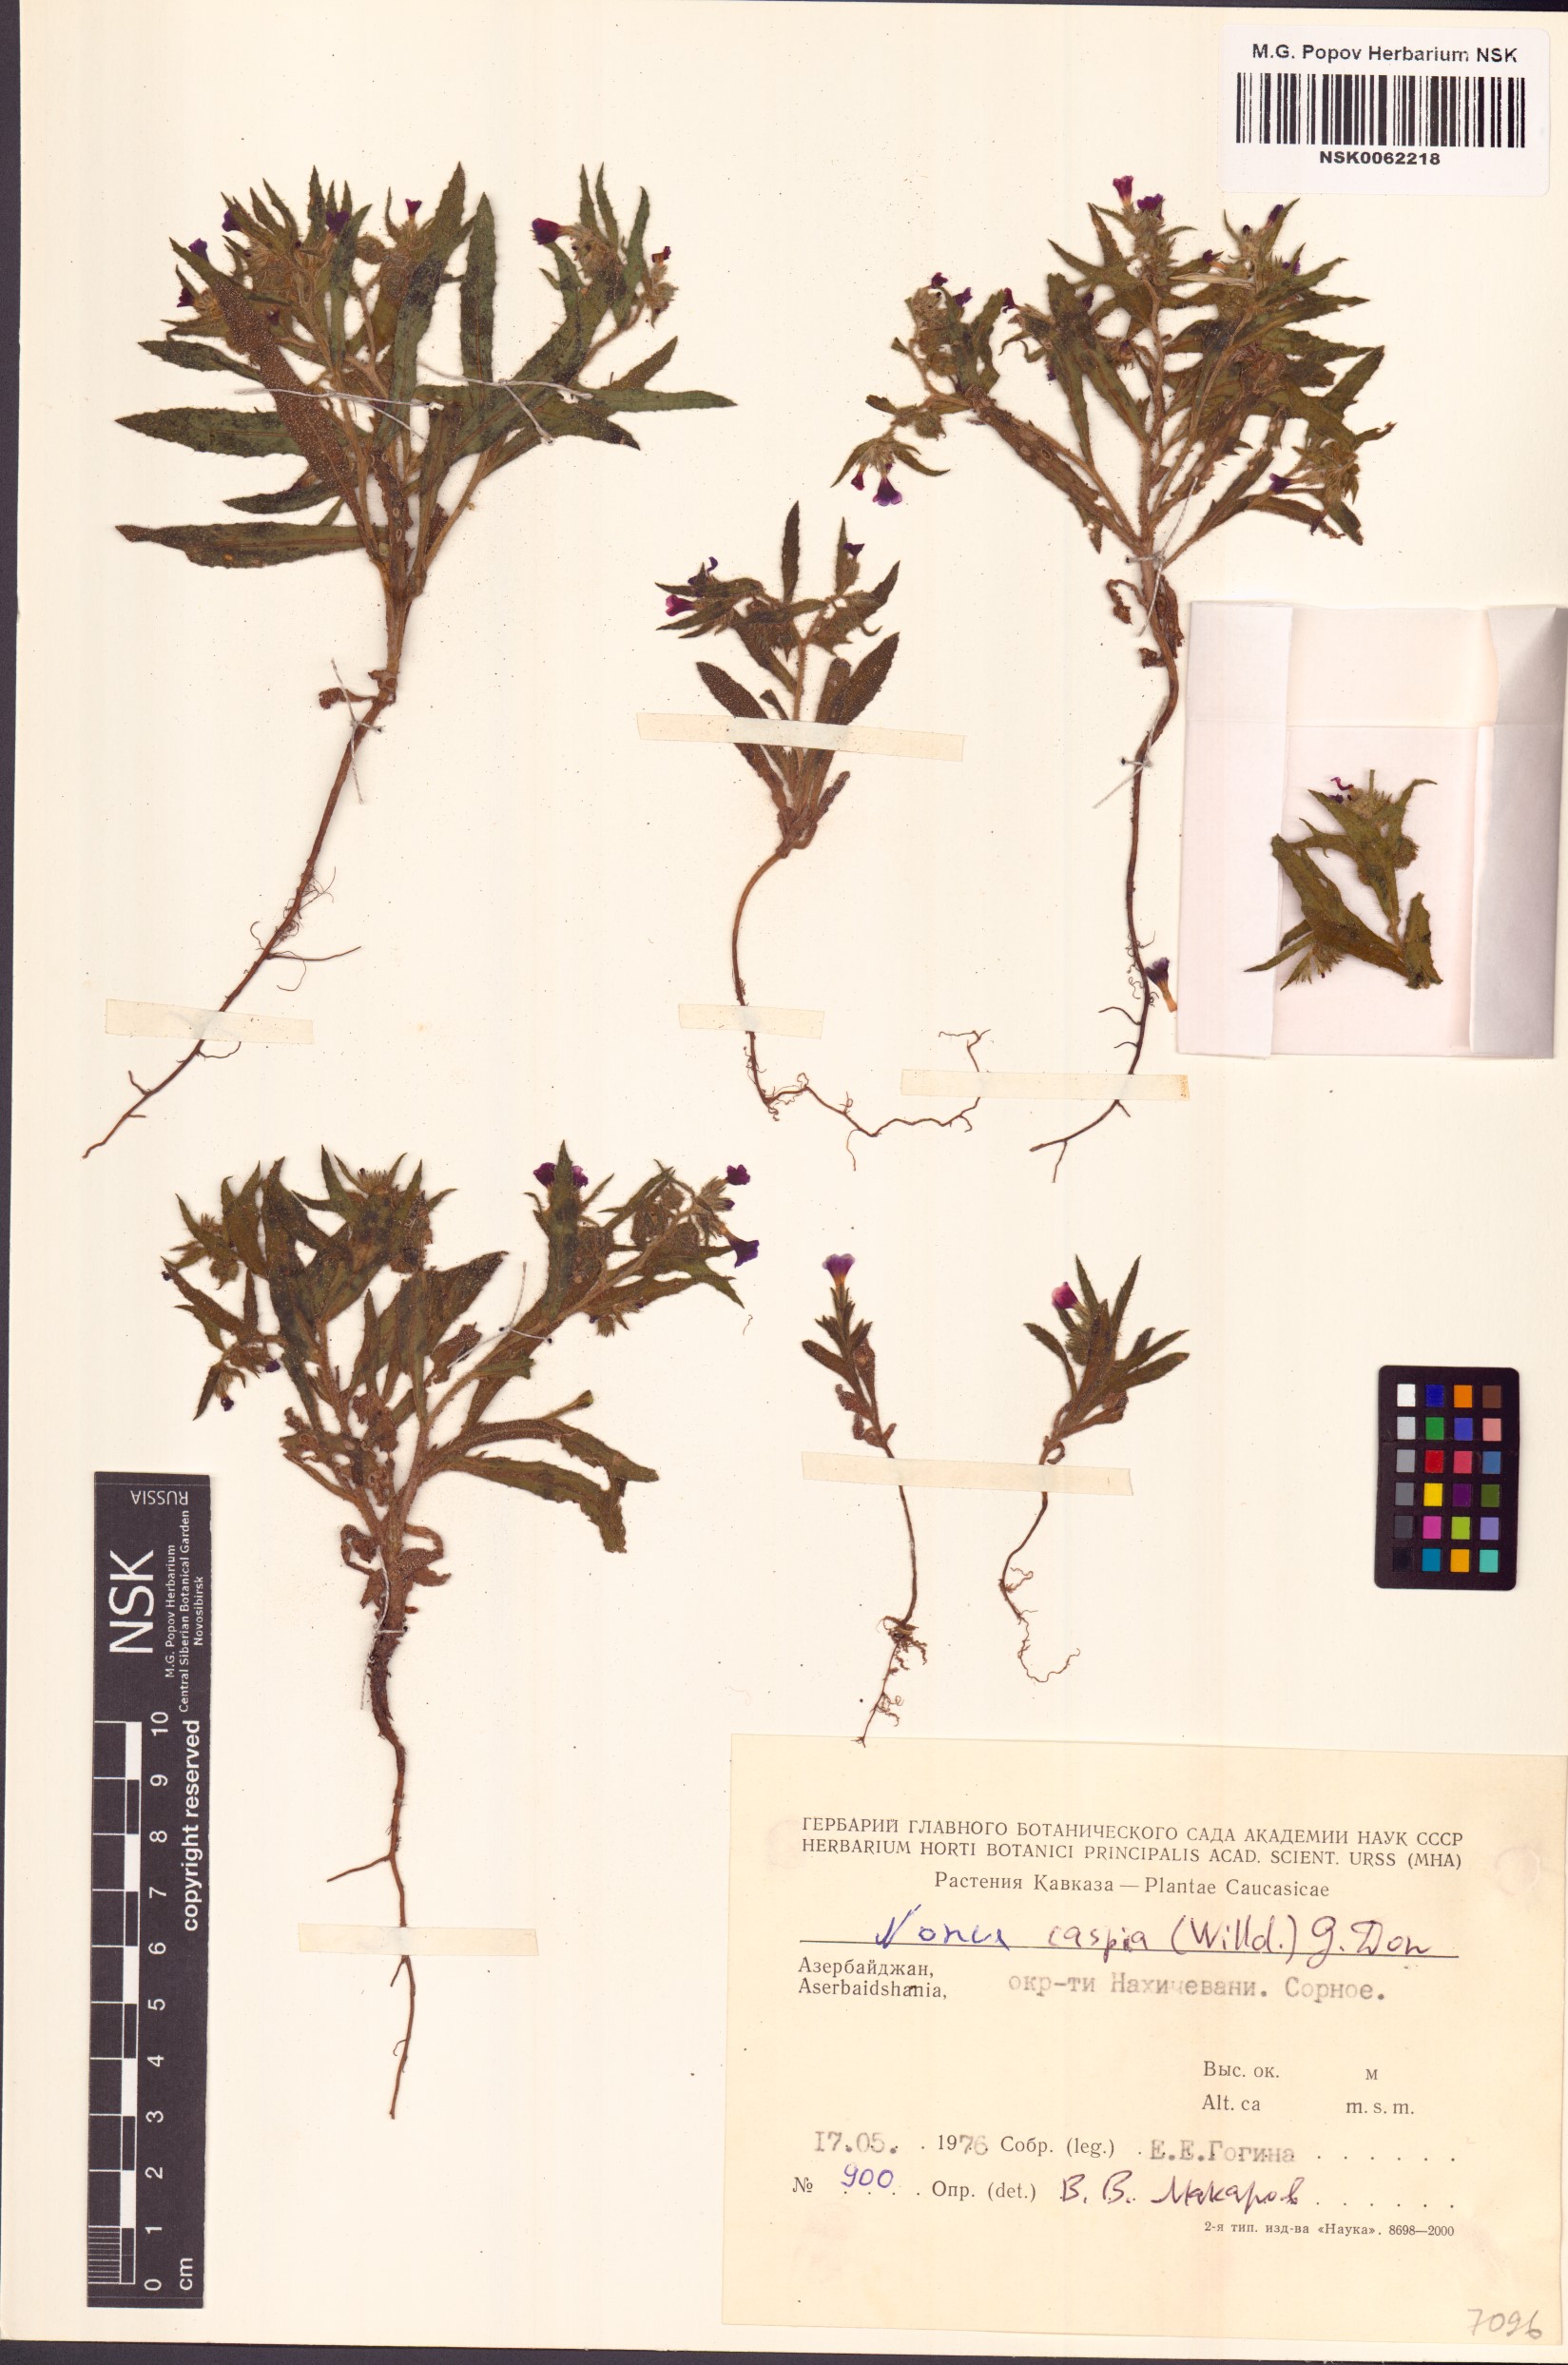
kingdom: Plantae
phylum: Tracheophyta
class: Magnoliopsida
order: Boraginales
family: Boraginaceae
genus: Nonea
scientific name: Nonea caspica
